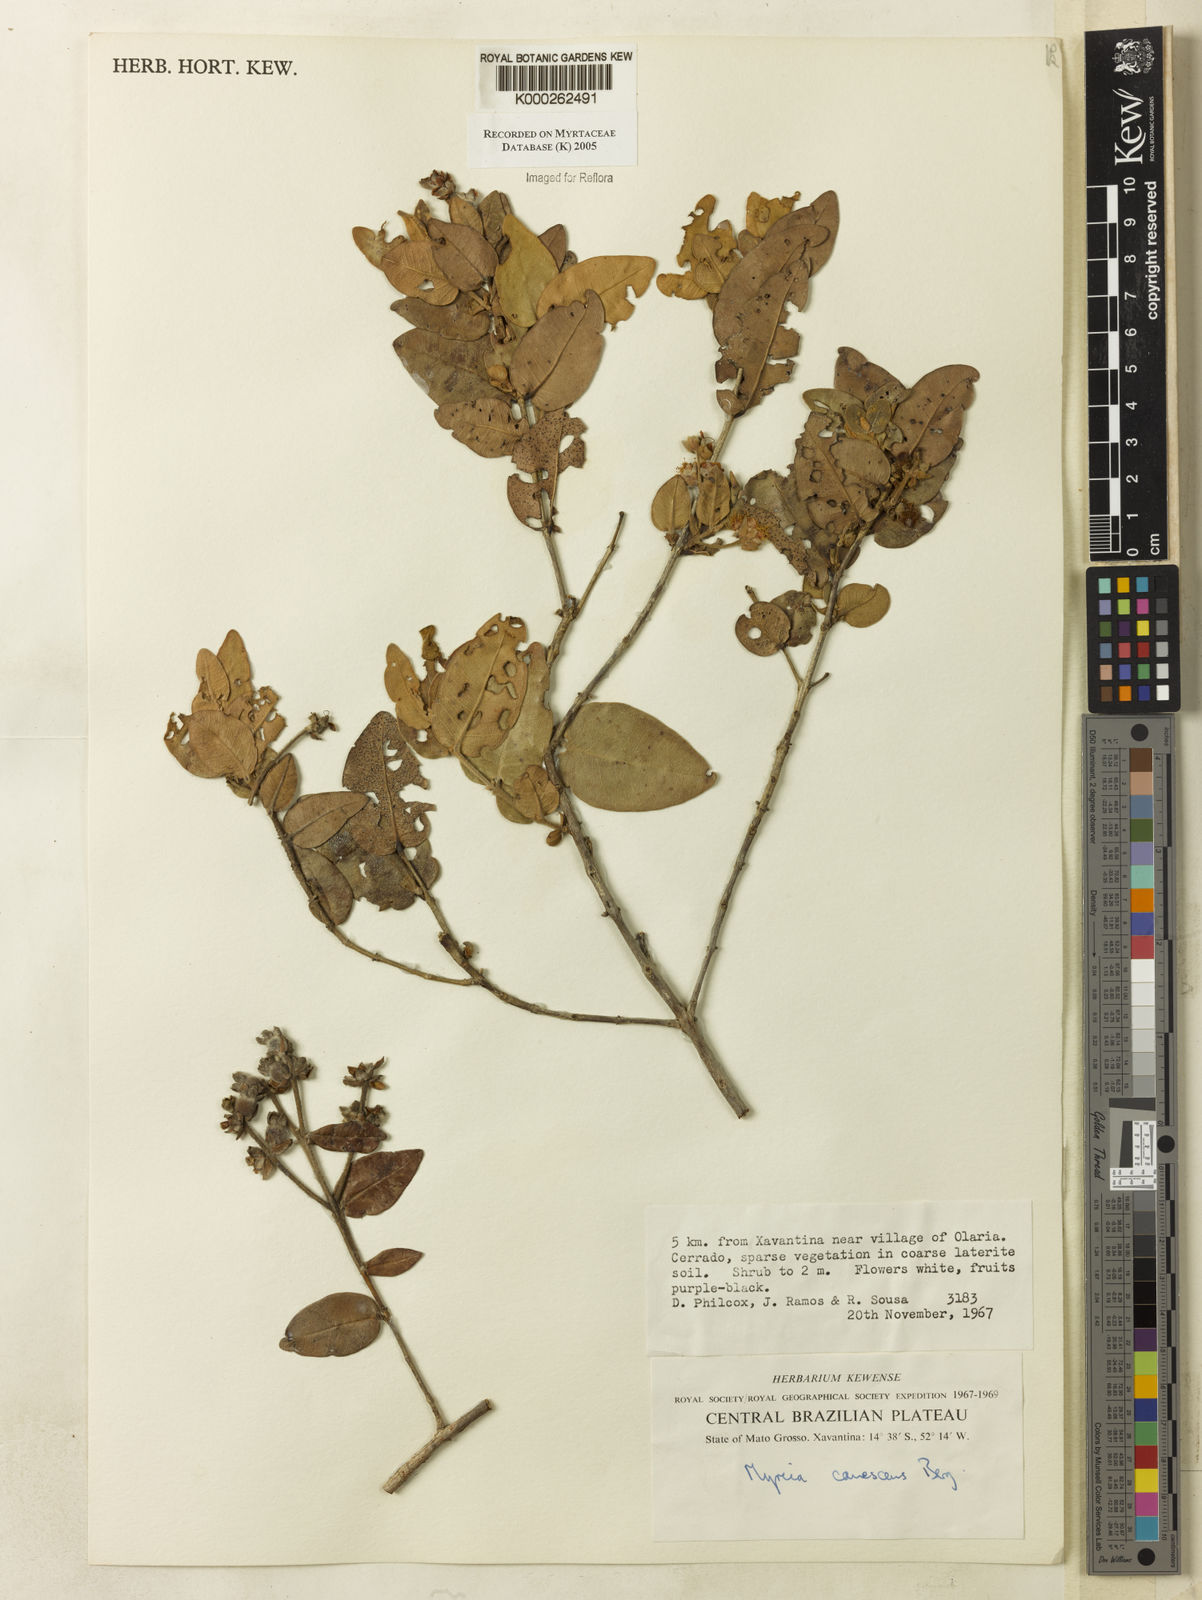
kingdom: Plantae
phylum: Tracheophyta
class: Magnoliopsida
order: Myrtales
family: Myrtaceae
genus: Myrcia
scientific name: Myrcia canescens
